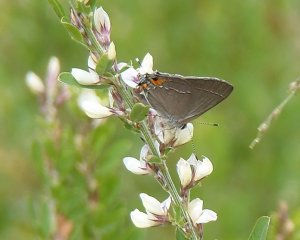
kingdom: Animalia
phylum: Arthropoda
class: Insecta
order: Lepidoptera
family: Lycaenidae
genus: Strymon
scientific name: Strymon melinus
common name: Gray Hairstreak
